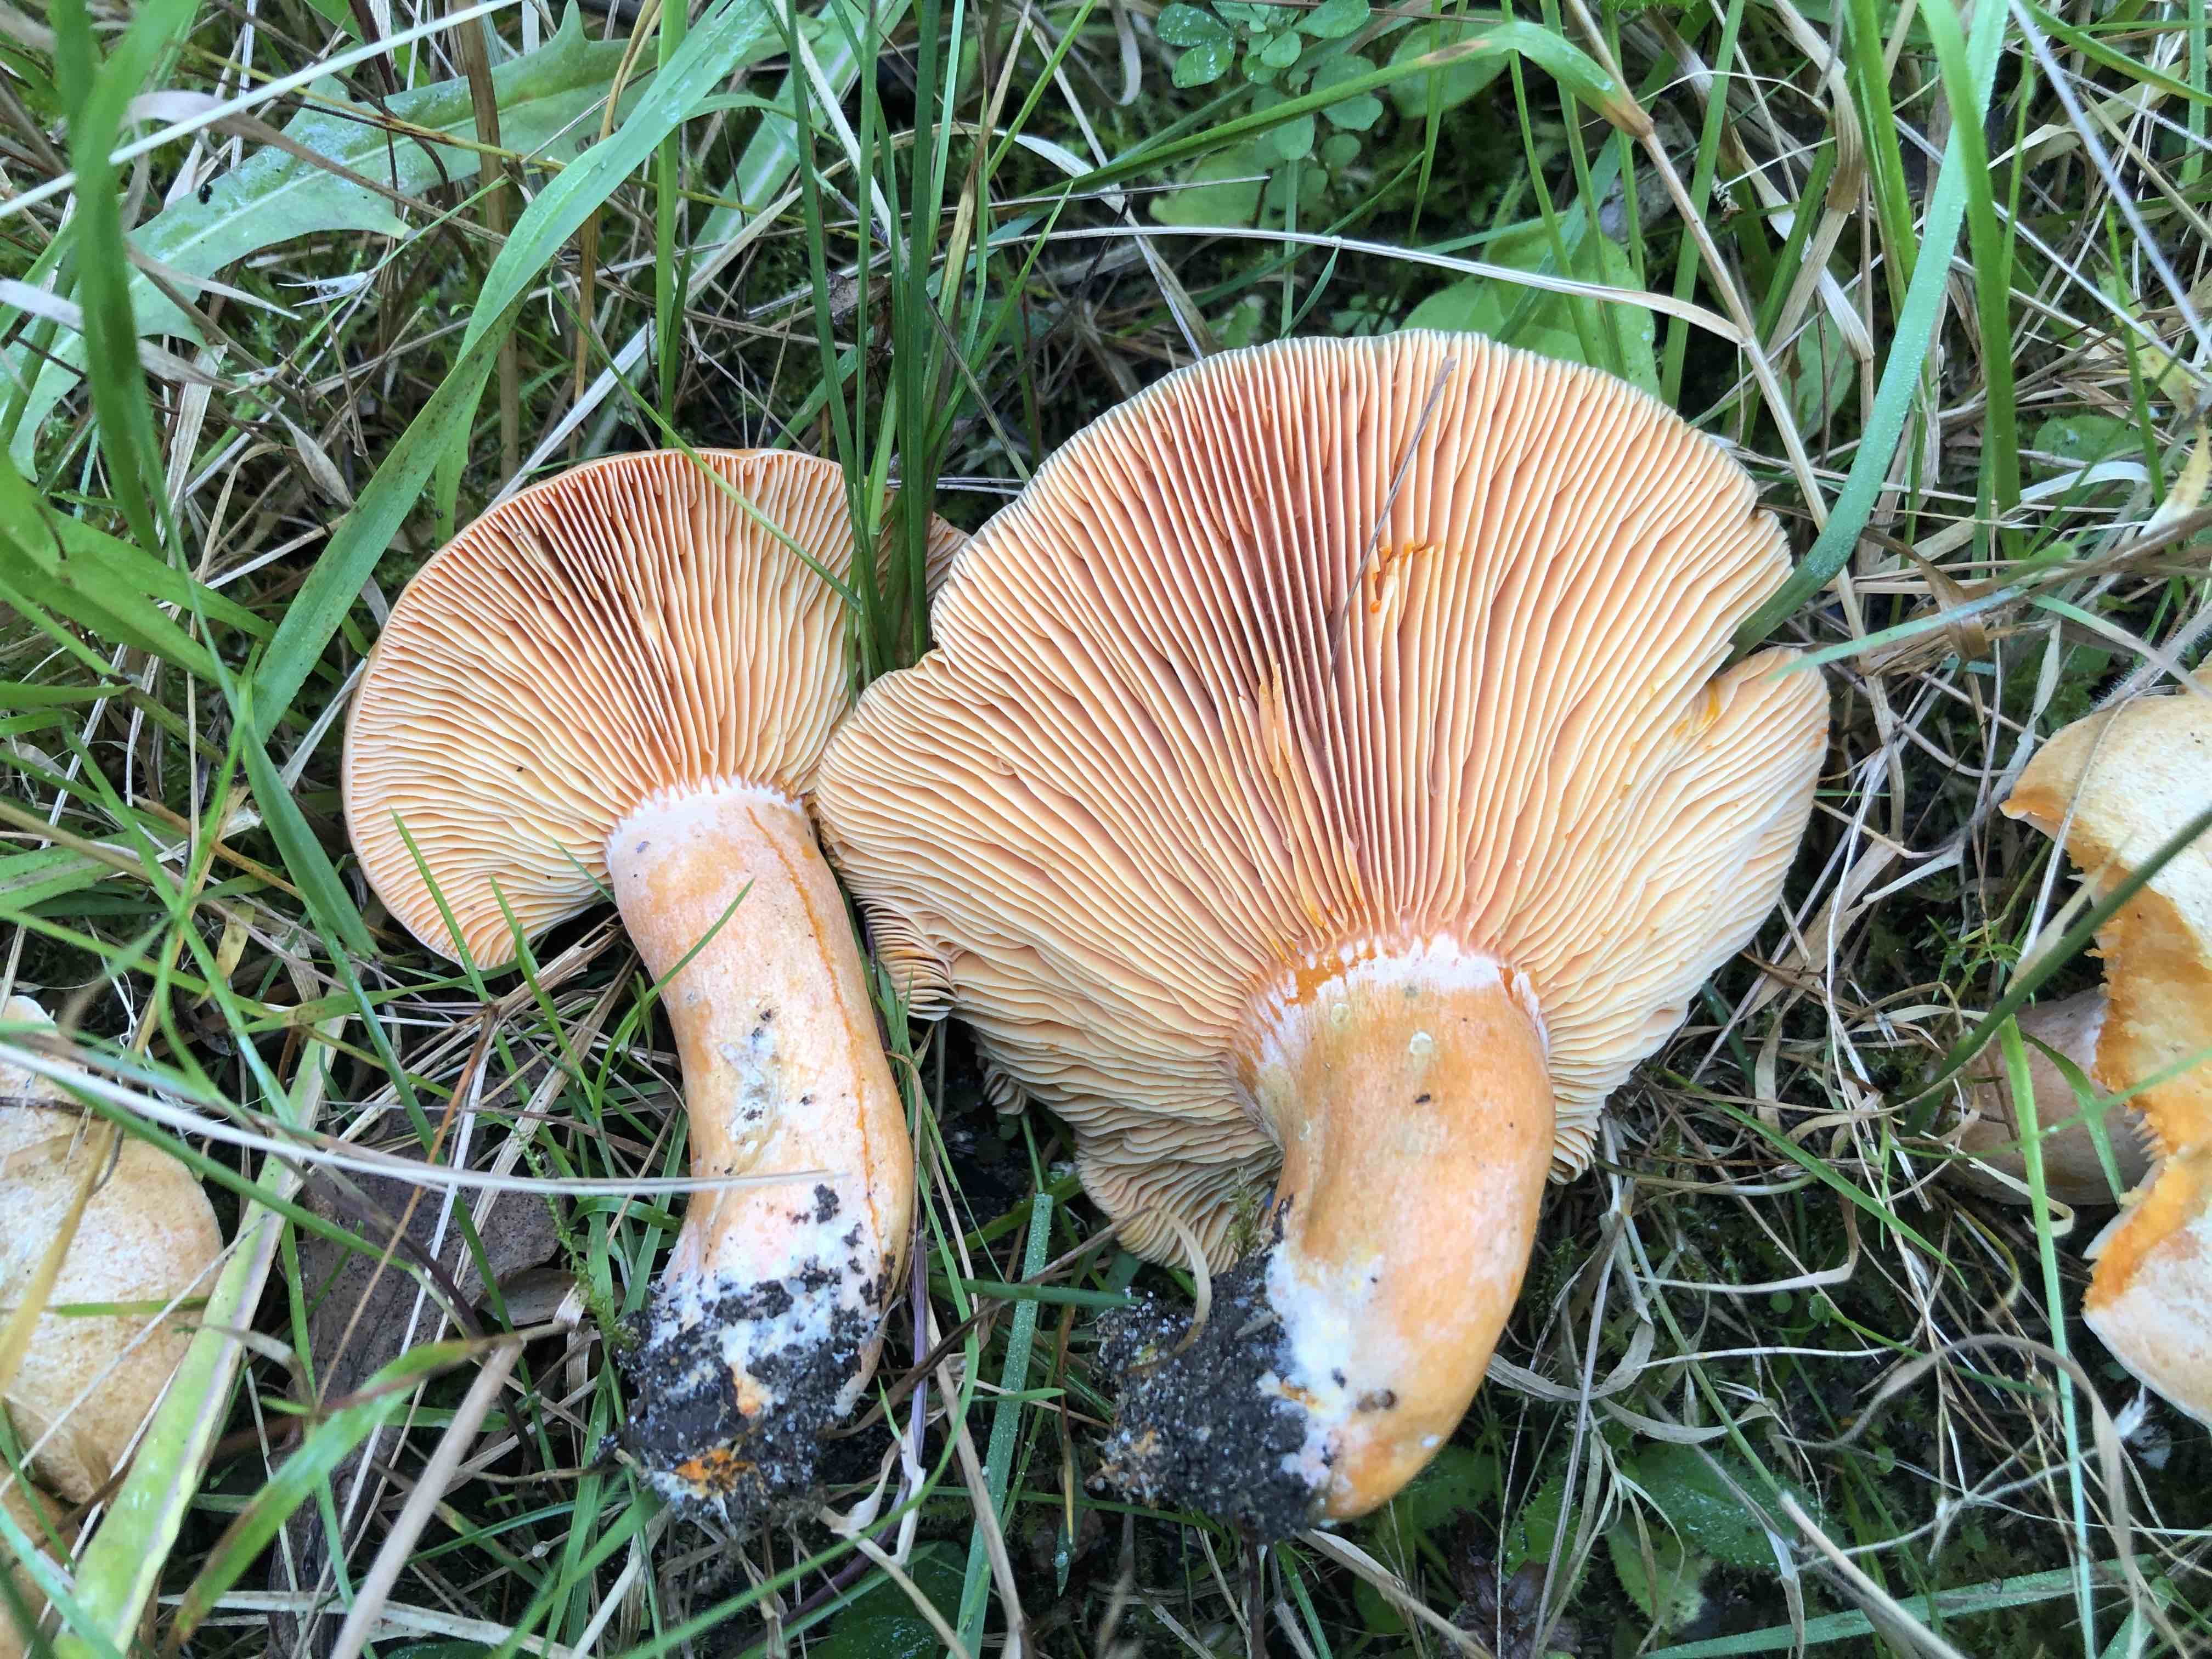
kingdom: Fungi
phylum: Basidiomycota
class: Agaricomycetes
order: Russulales
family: Russulaceae
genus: Lactarius
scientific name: Lactarius deterrimus
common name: gran-mælkehat
